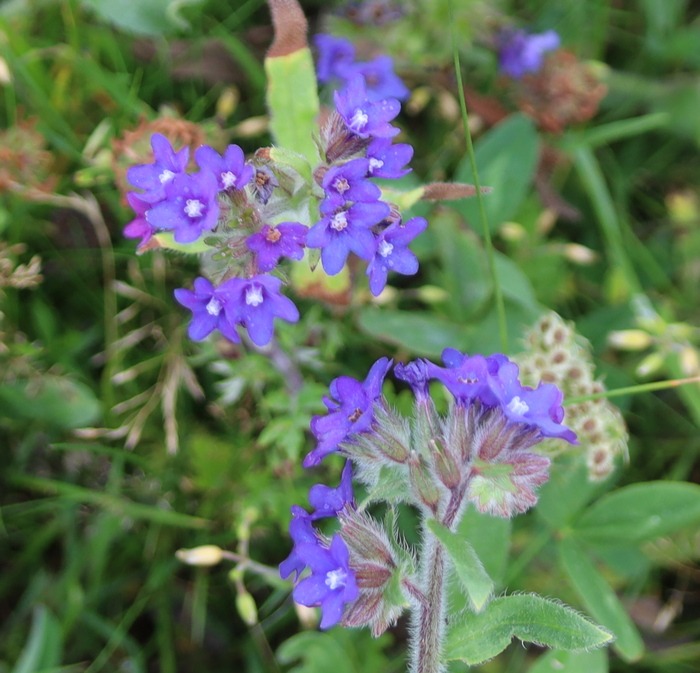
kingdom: Plantae
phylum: Tracheophyta
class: Magnoliopsida
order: Boraginales
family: Boraginaceae
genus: Anchusa
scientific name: Anchusa officinalis
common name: Læge-oksetunge
